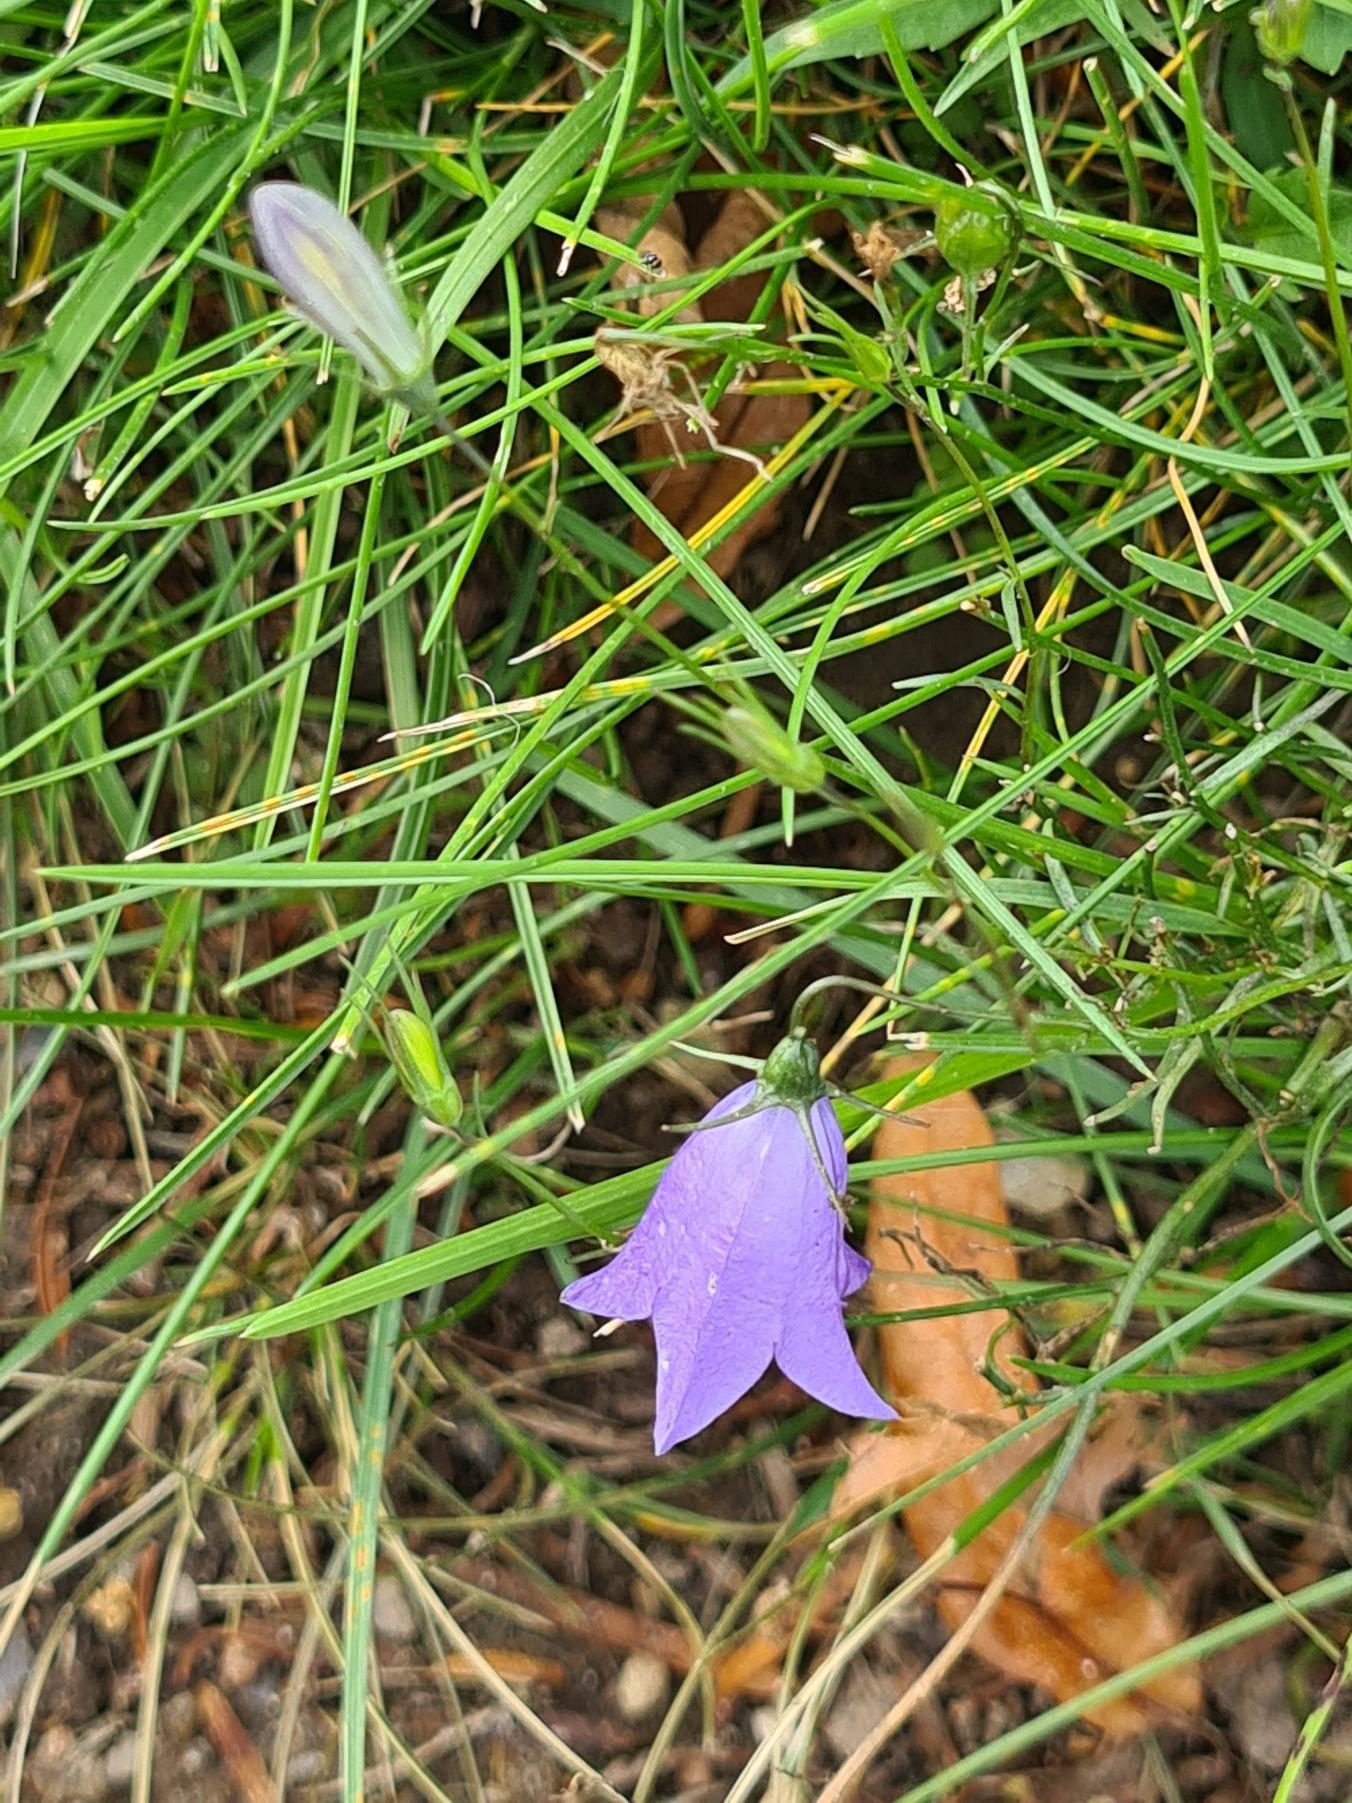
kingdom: Plantae
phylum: Tracheophyta
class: Magnoliopsida
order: Asterales
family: Campanulaceae
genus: Campanula
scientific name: Campanula rotundifolia
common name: Liden klokke
